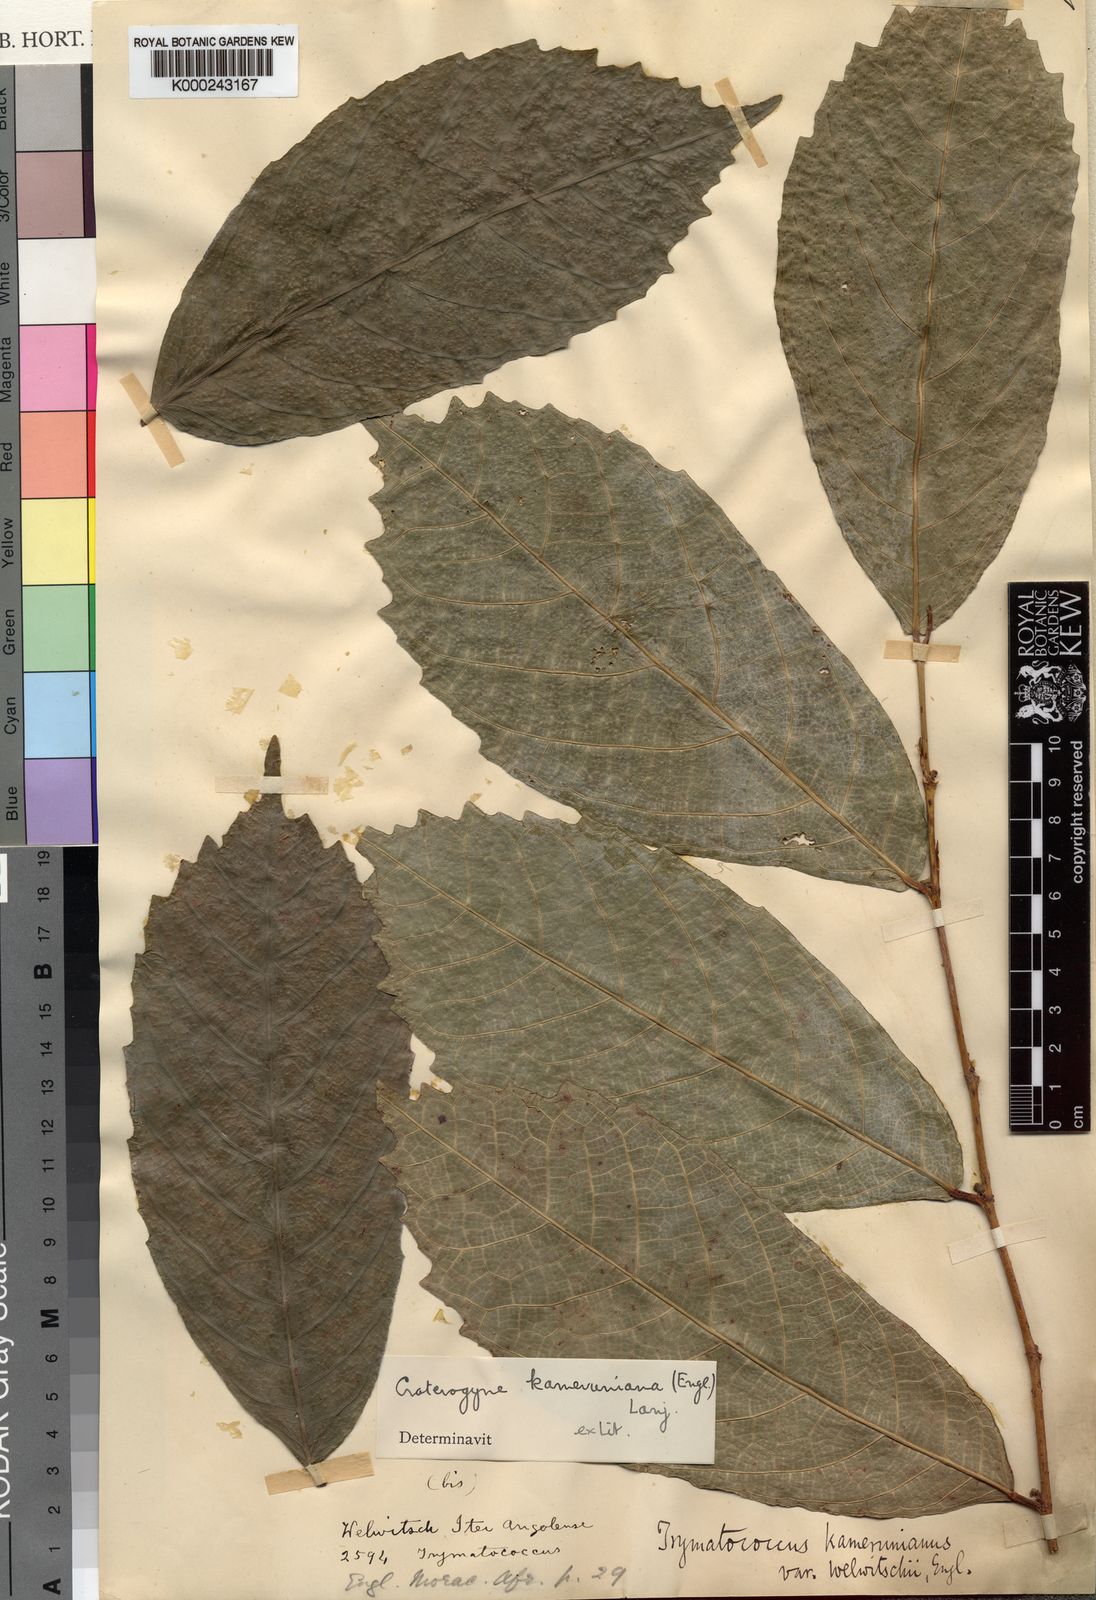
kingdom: Plantae
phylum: Tracheophyta
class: Magnoliopsida
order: Rosales
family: Moraceae
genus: Dorstenia
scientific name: Dorstenia kameruniana
